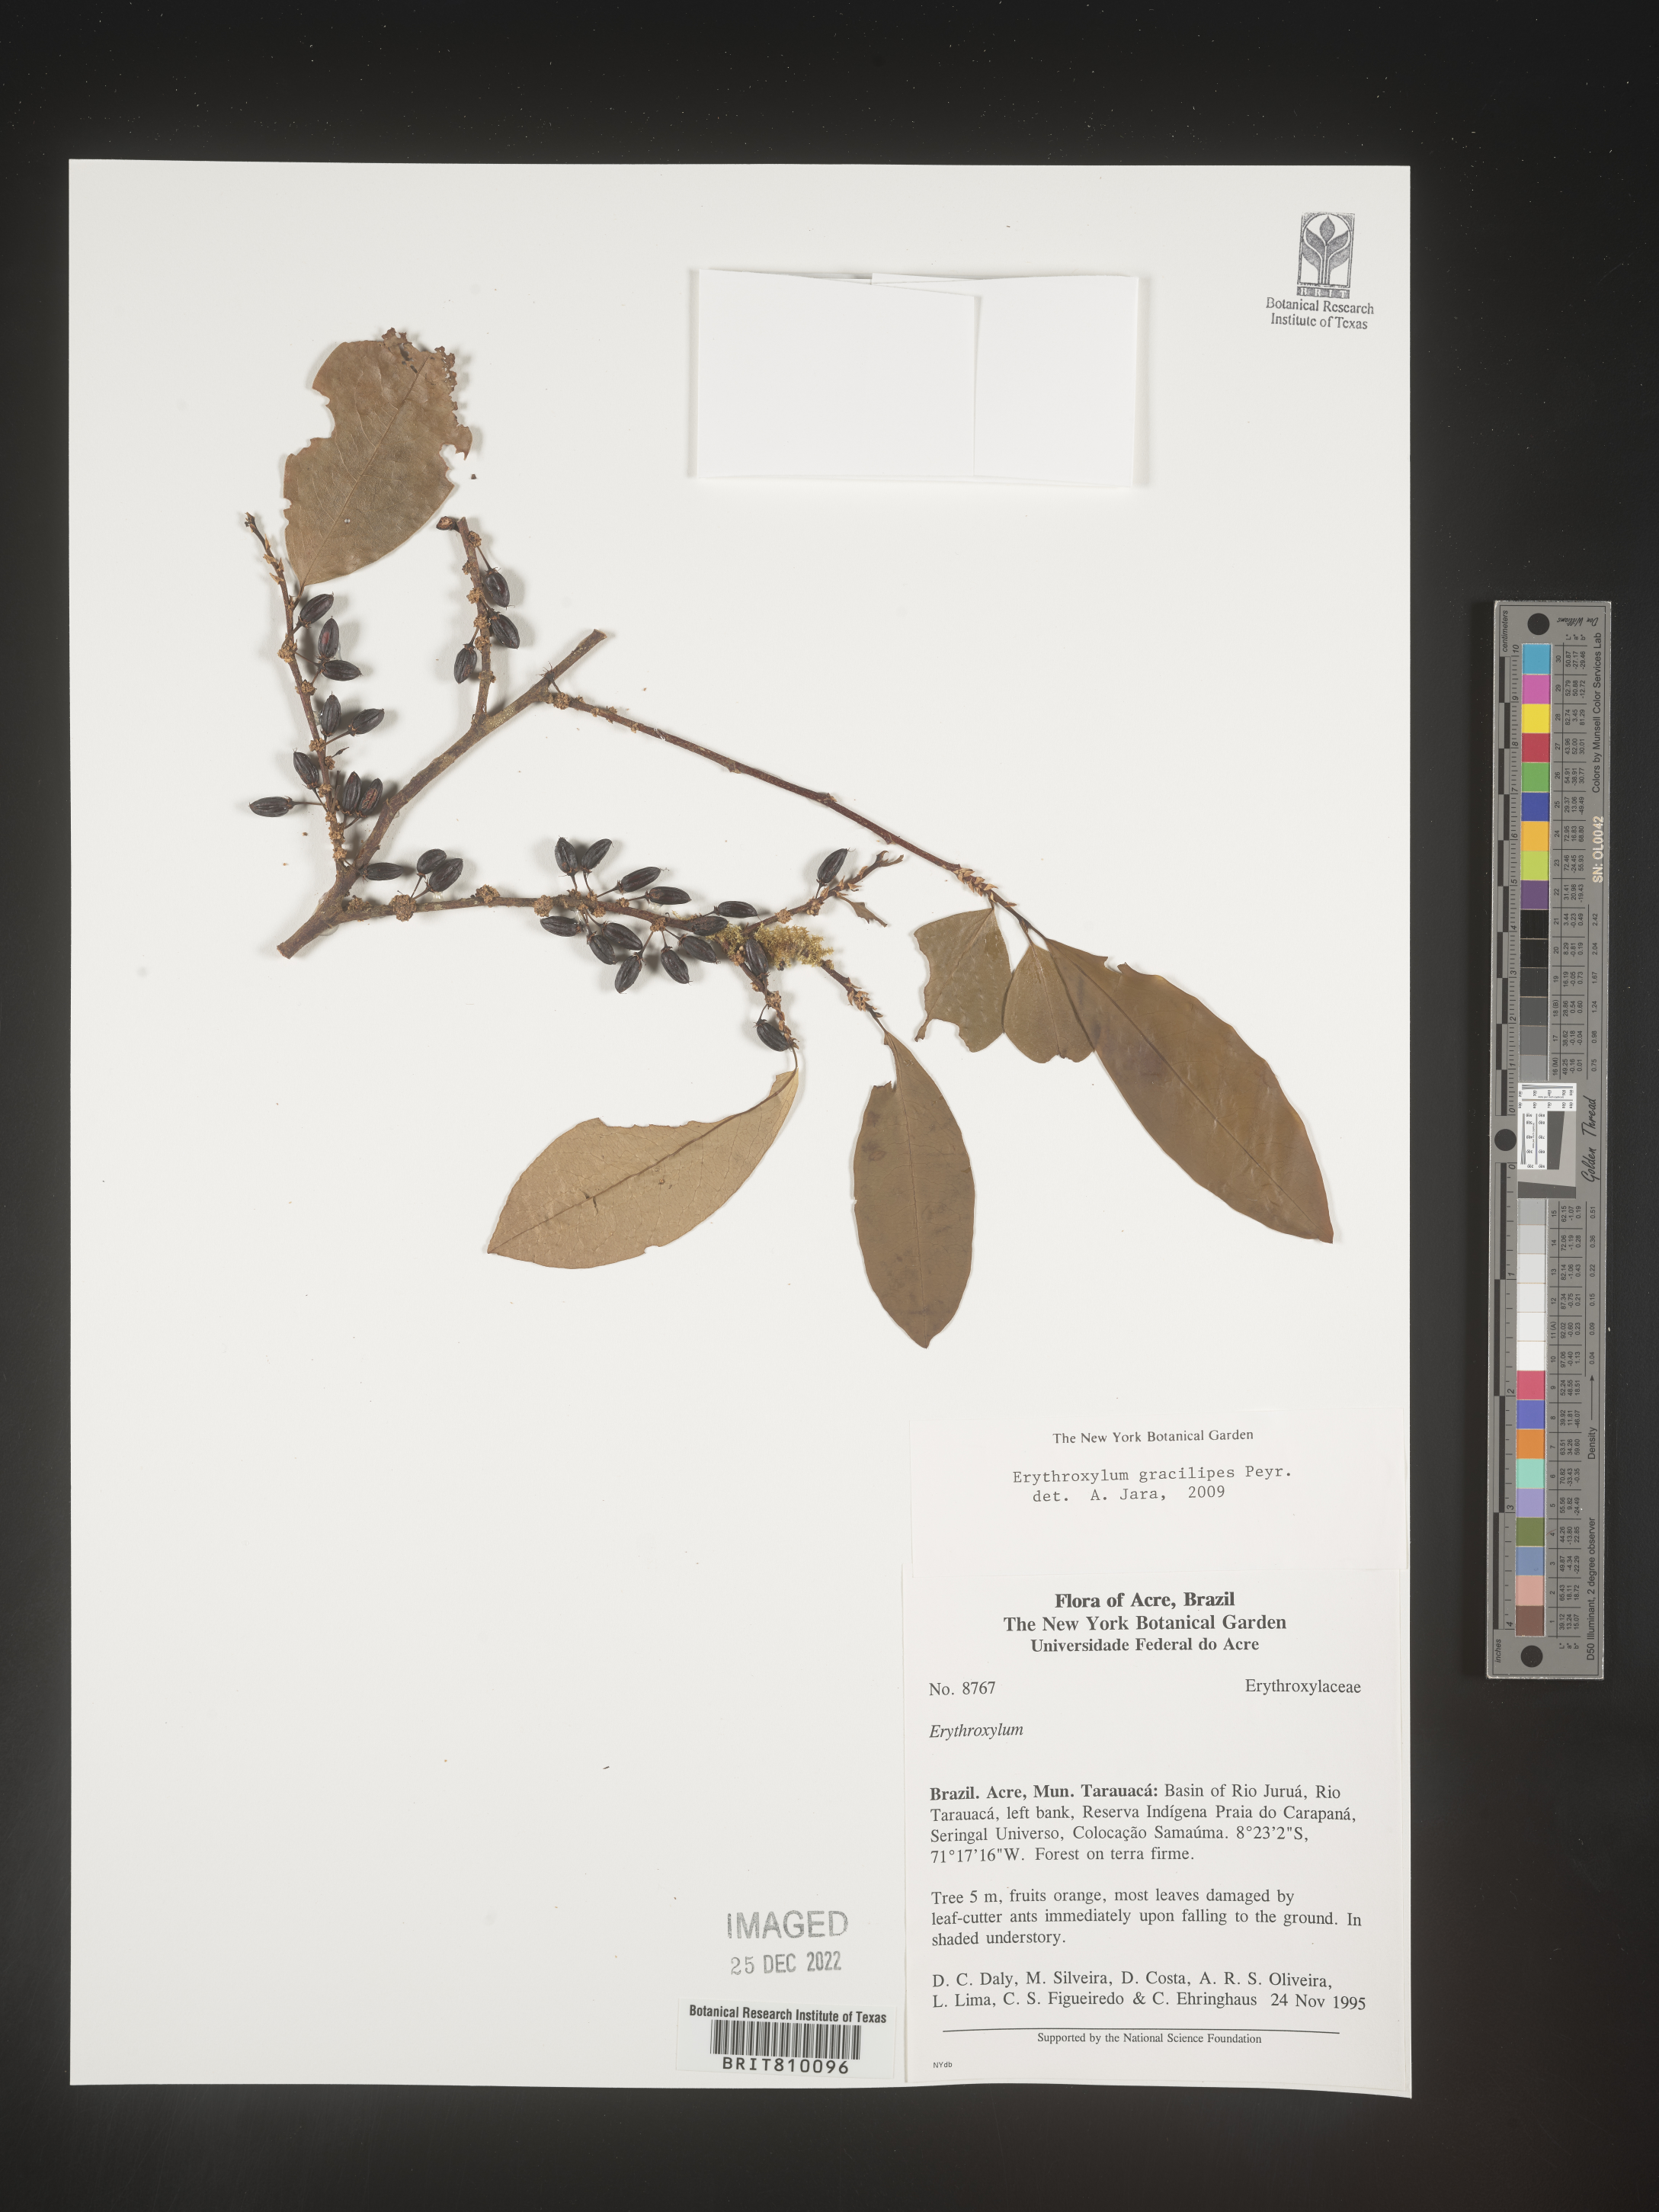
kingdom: Plantae
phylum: Tracheophyta
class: Magnoliopsida
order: Malpighiales
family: Erythroxylaceae
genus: Erythroxylum
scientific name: Erythroxylum
